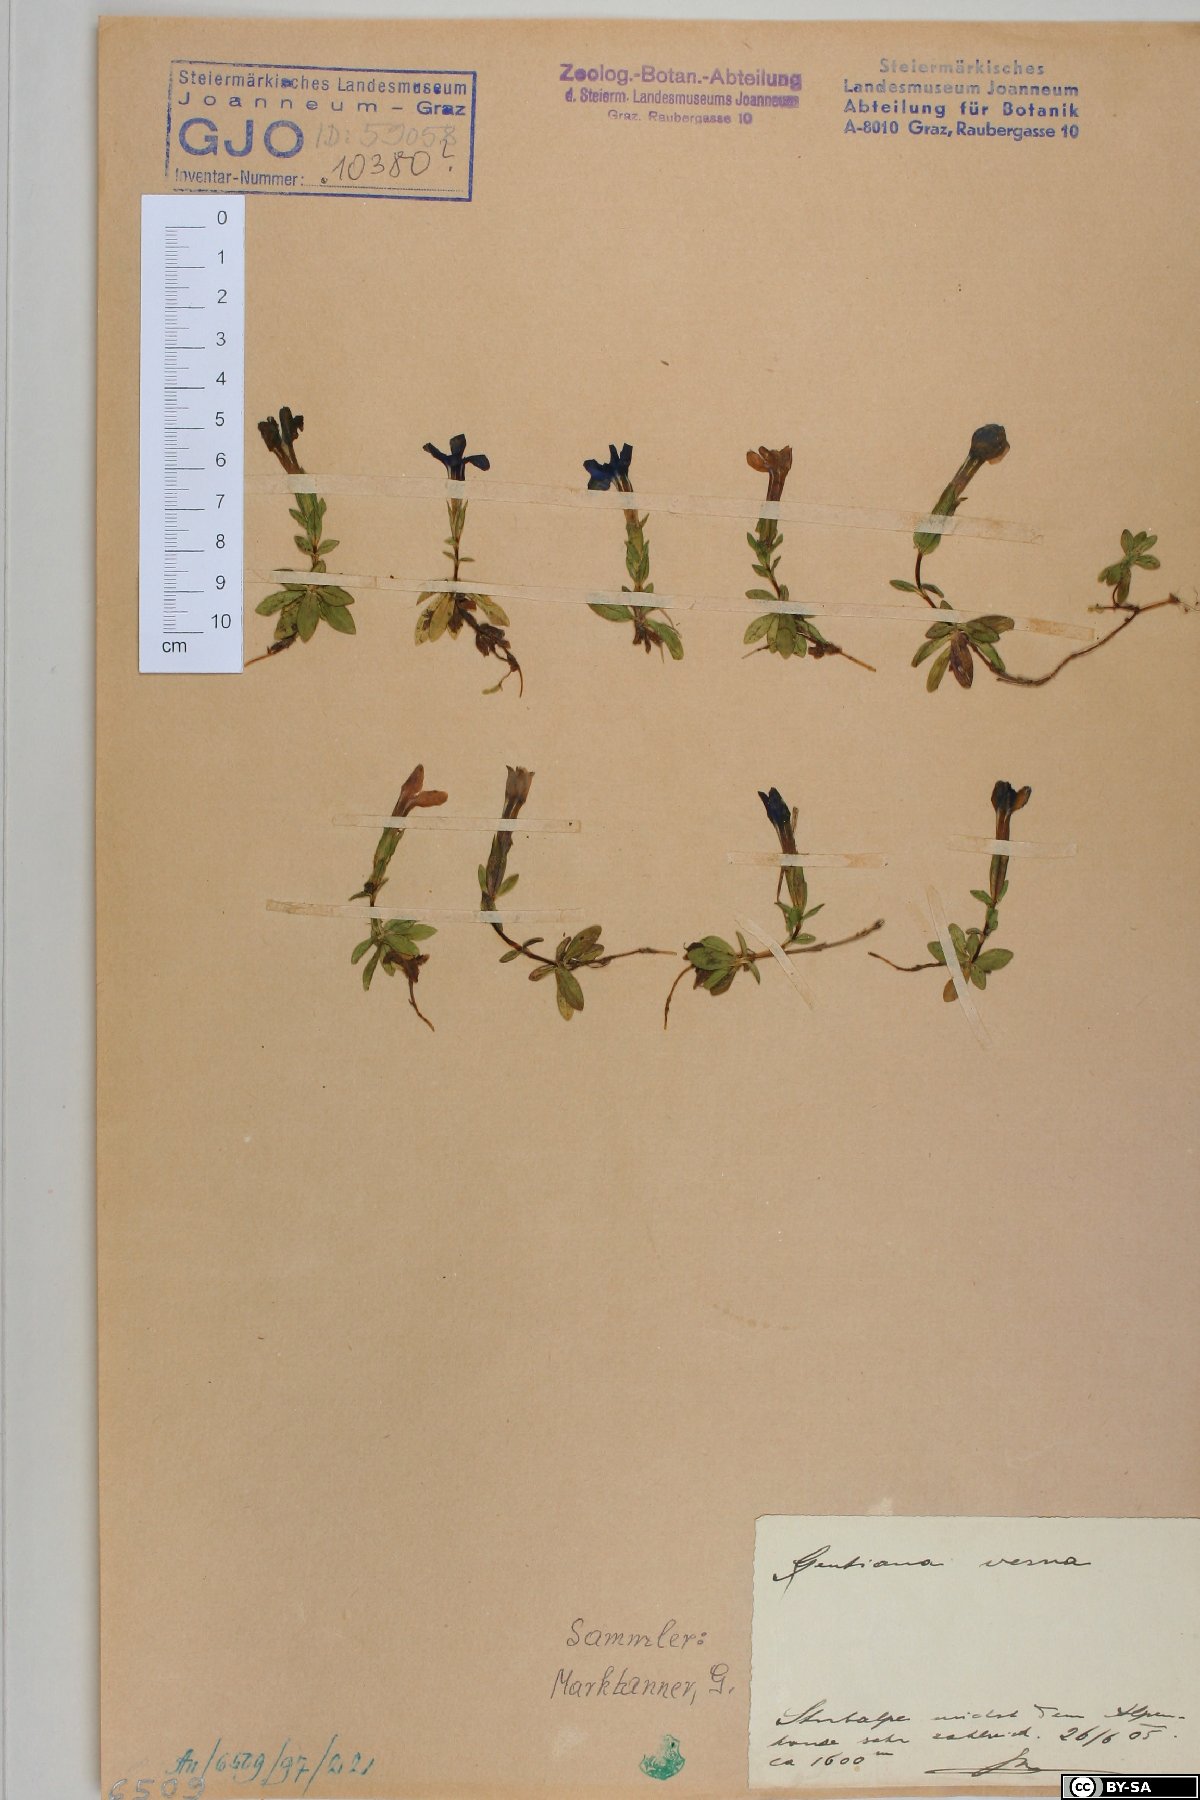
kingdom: Plantae
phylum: Tracheophyta
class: Magnoliopsida
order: Gentianales
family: Gentianaceae
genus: Gentiana
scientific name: Gentiana verna
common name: Spring gentian
